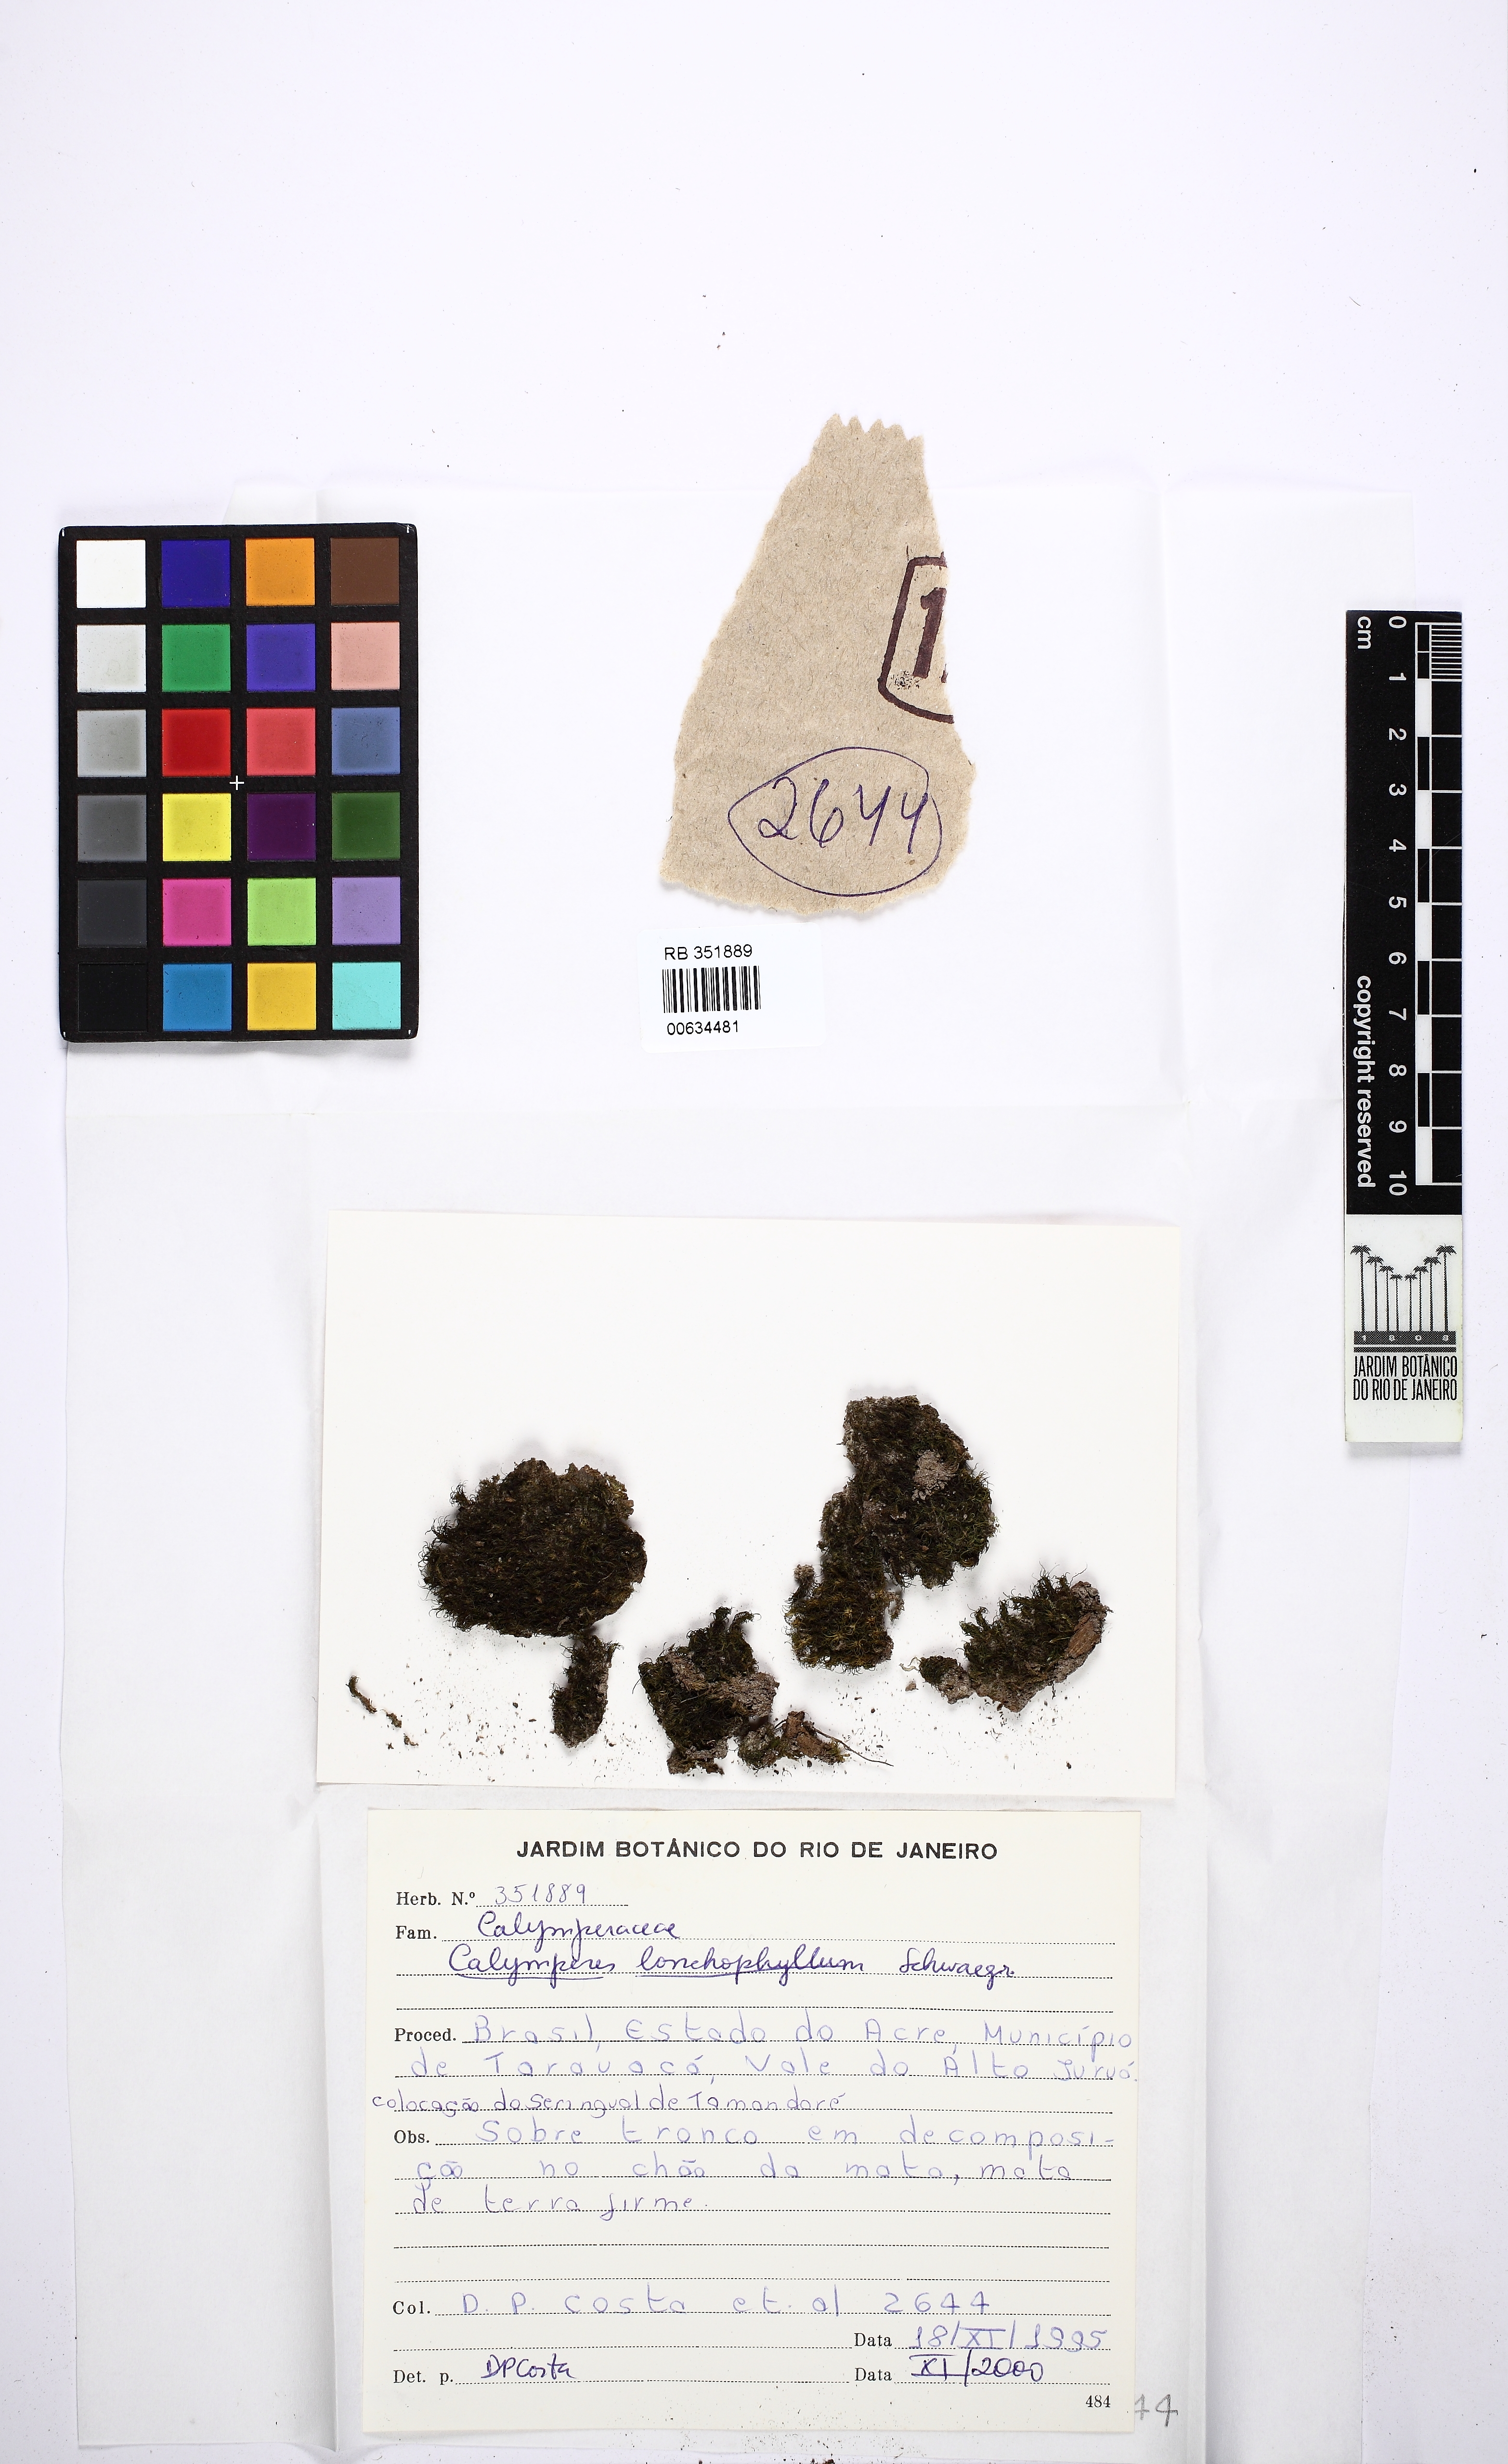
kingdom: Plantae
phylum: Bryophyta
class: Bryopsida
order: Dicranales
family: Calymperaceae
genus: Calymperes
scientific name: Calymperes lonchophyllum
